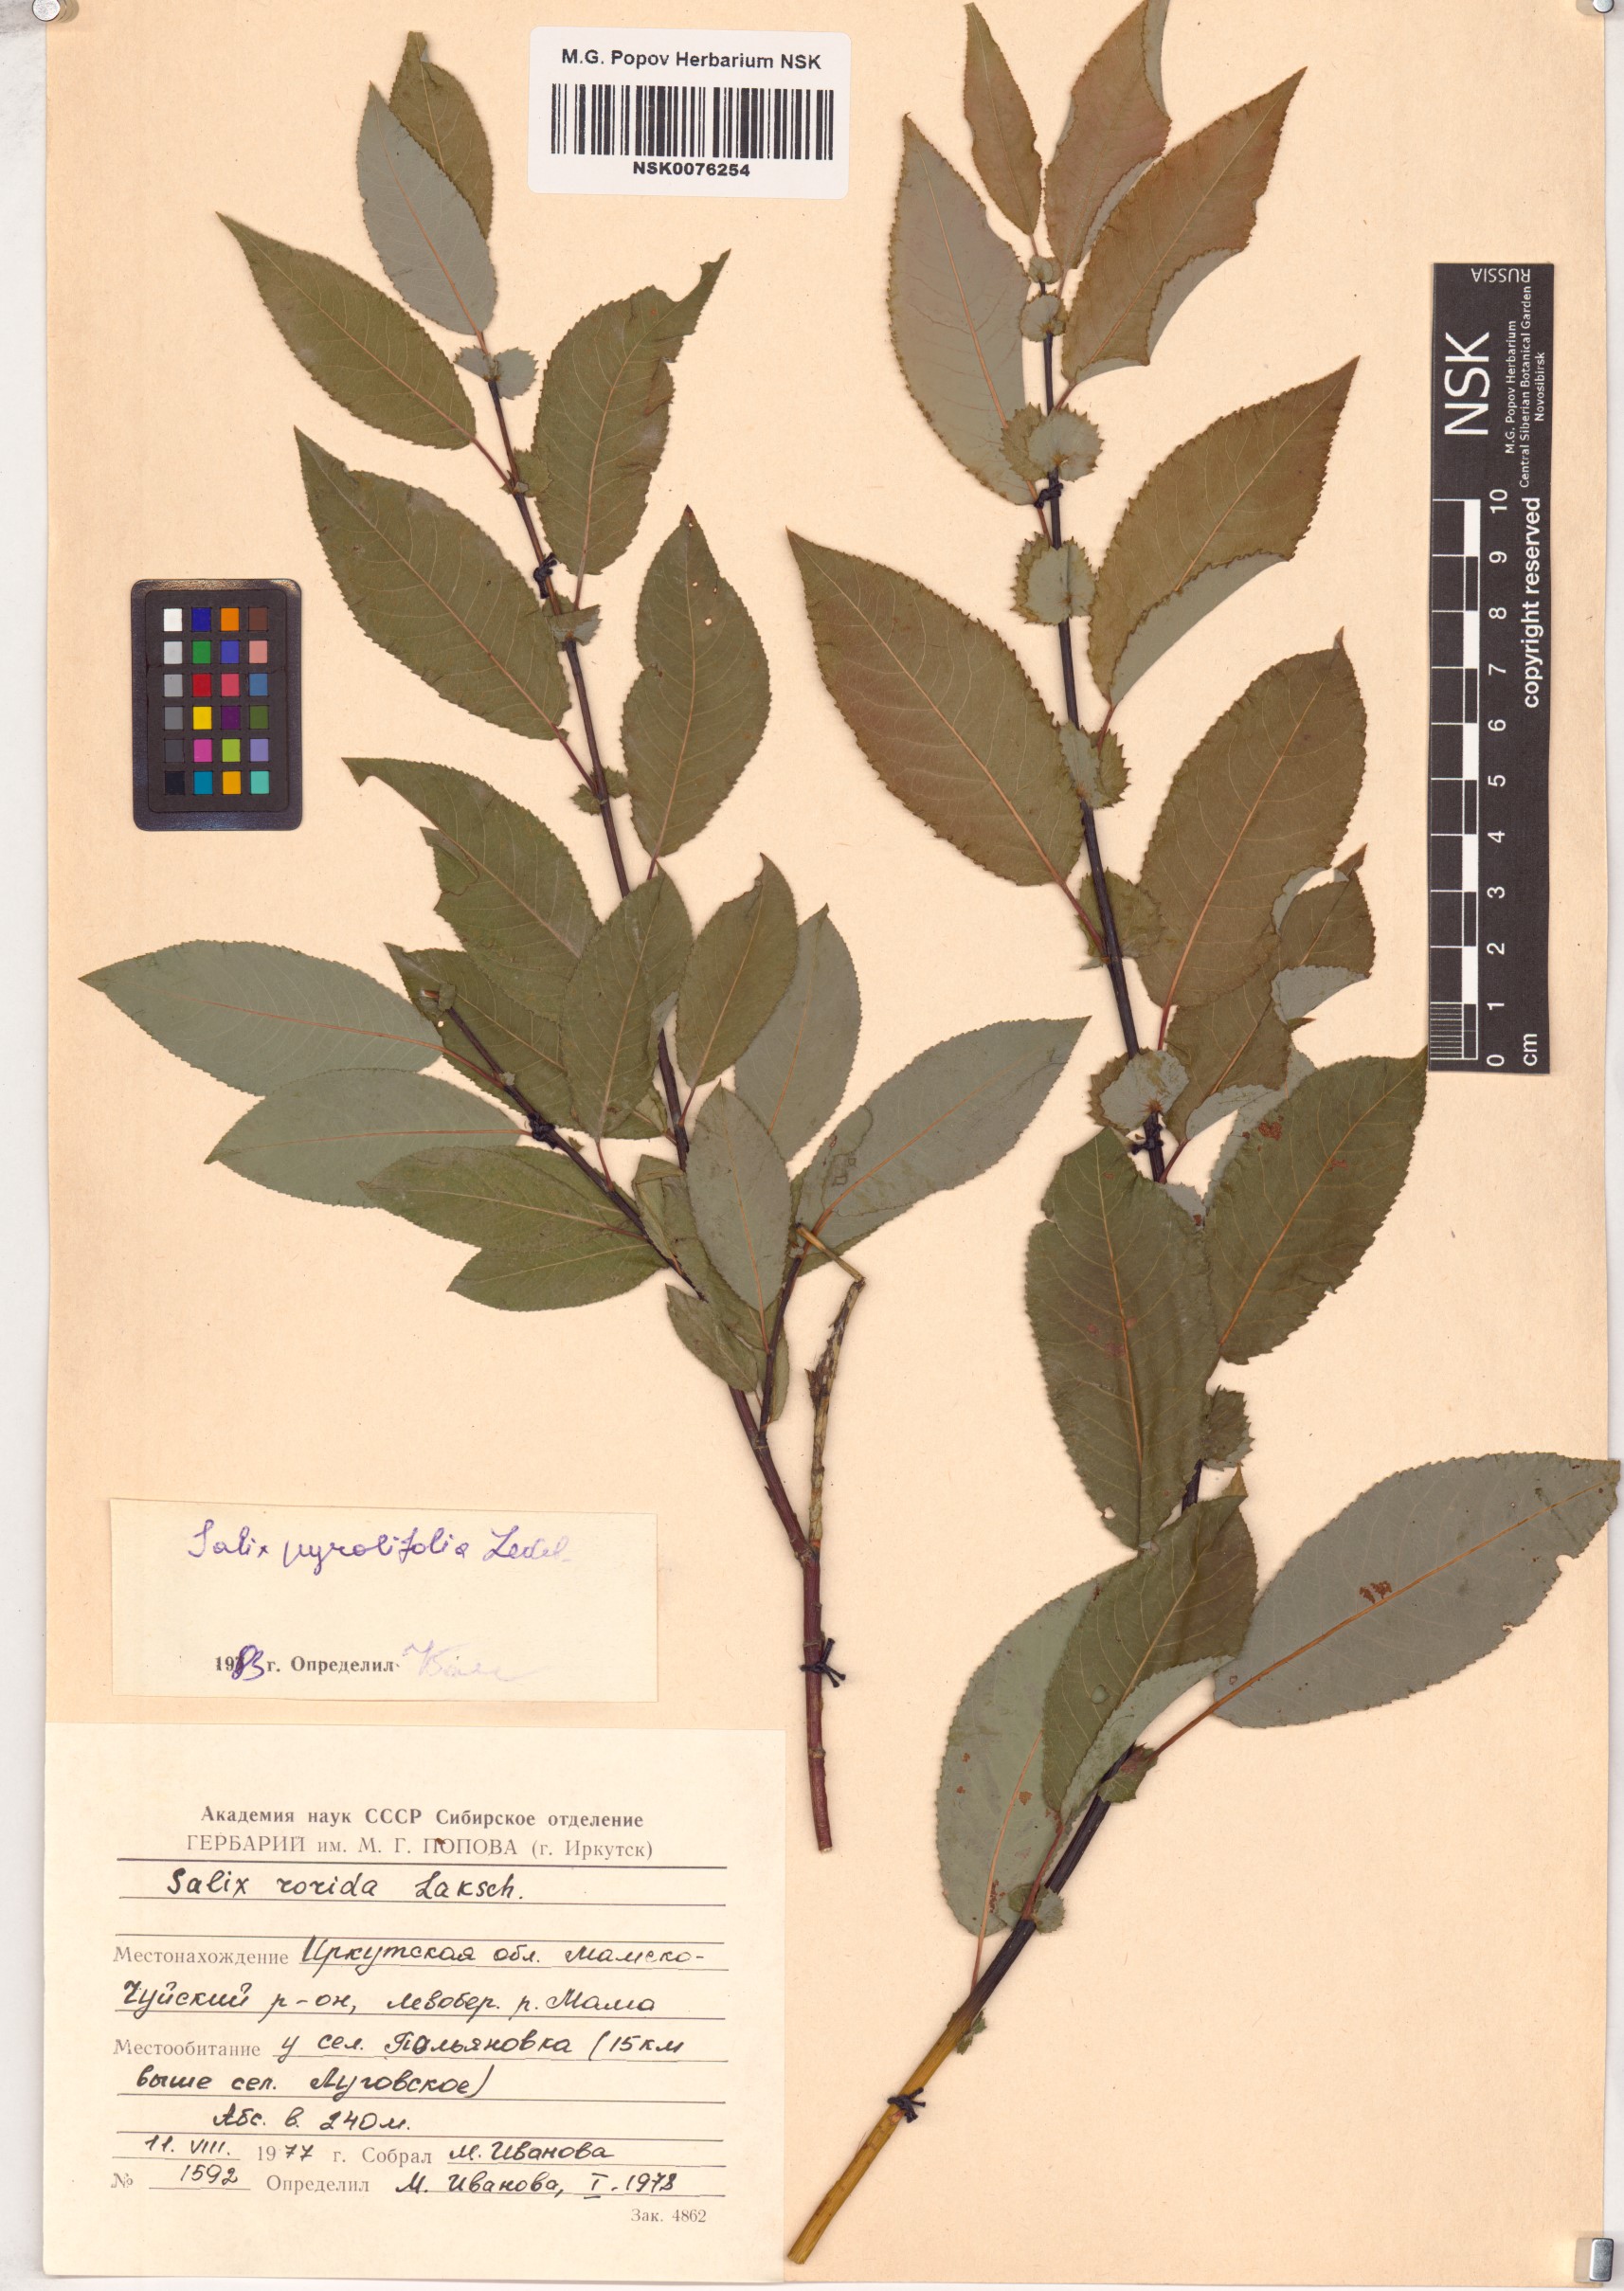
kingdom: Plantae
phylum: Tracheophyta
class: Magnoliopsida
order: Malpighiales
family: Salicaceae
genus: Salix
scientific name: Salix pyrolifolia
